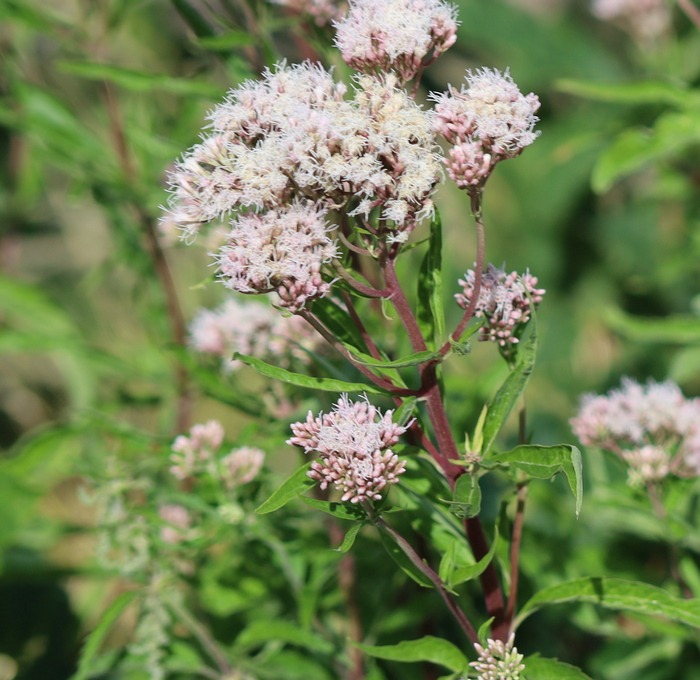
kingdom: Plantae
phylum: Tracheophyta
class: Magnoliopsida
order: Asterales
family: Asteraceae
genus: Eupatorium
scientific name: Eupatorium cannabinum
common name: Hjortetrøst
